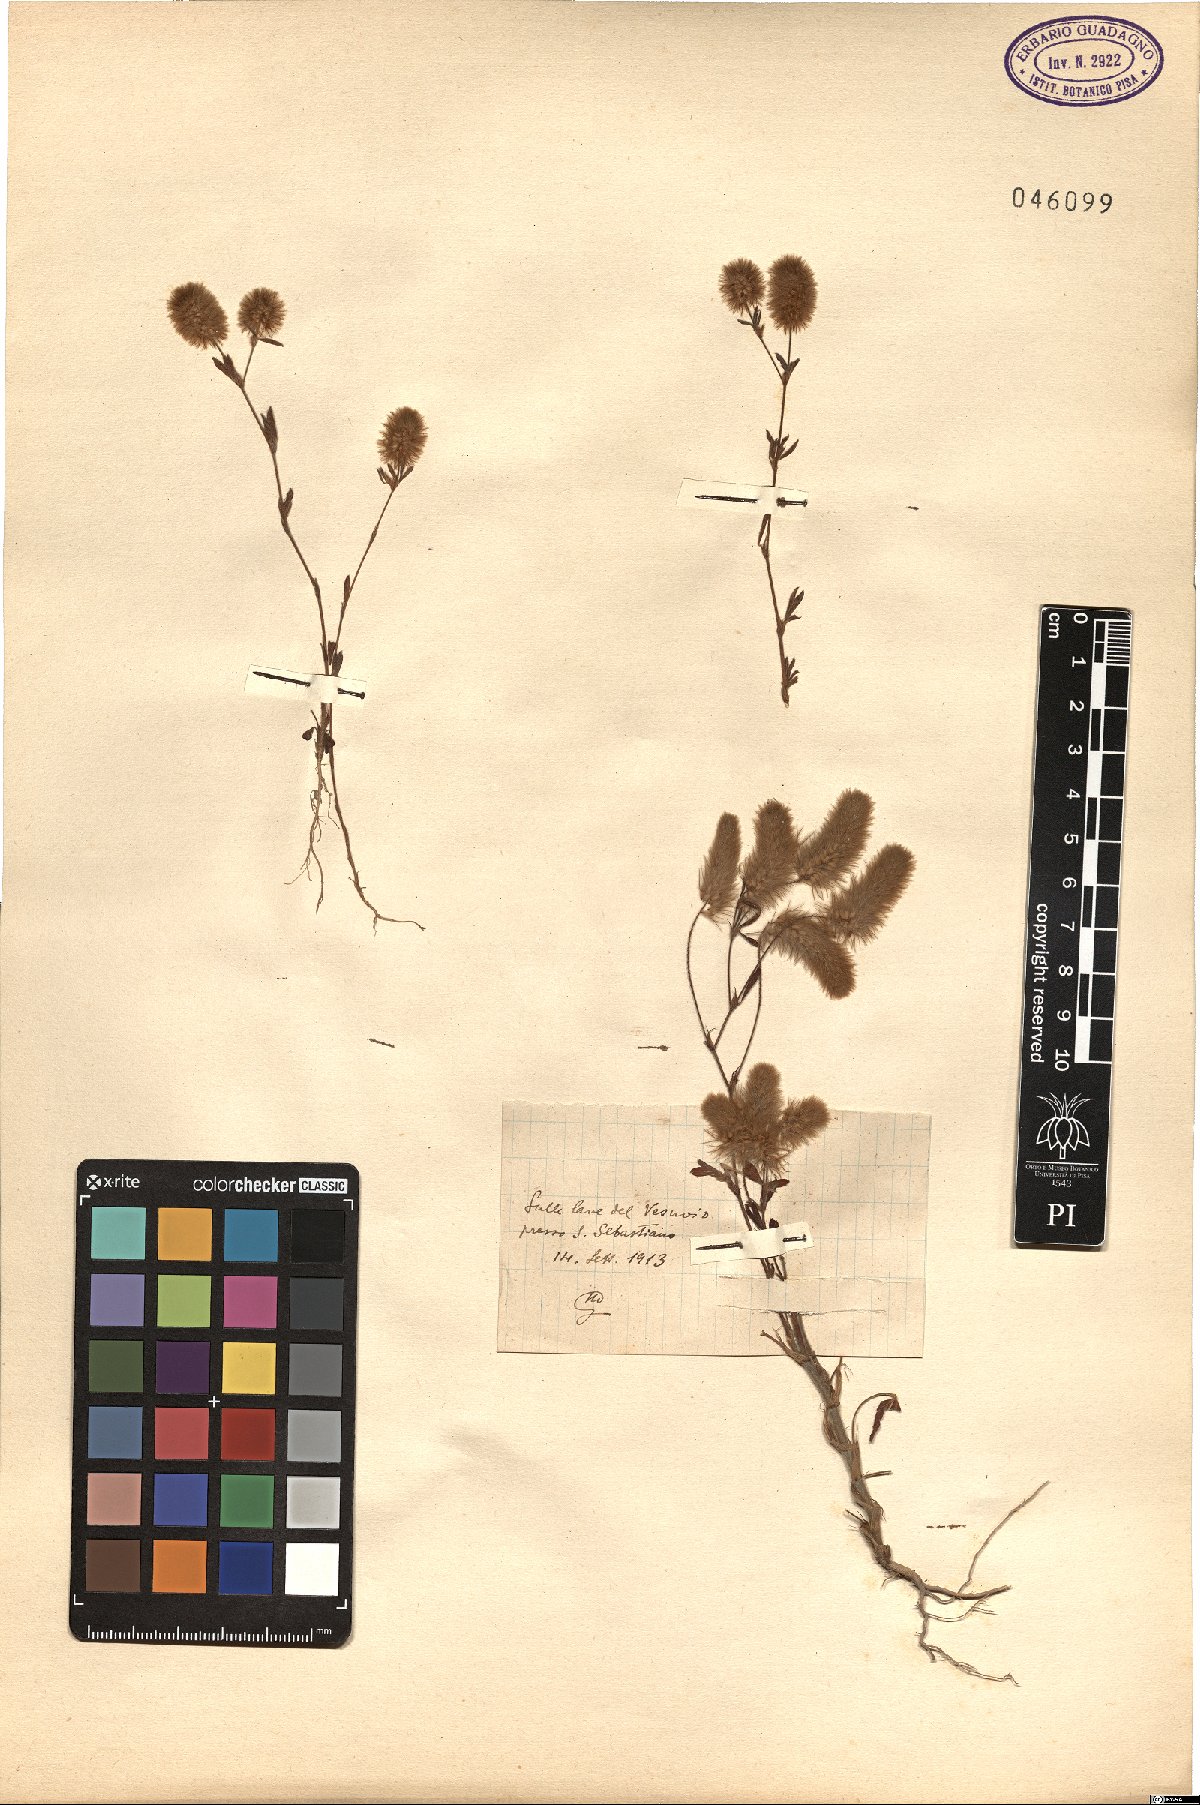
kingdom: Plantae
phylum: Tracheophyta
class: Magnoliopsida
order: Fabales
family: Fabaceae
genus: Trifolium
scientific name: Trifolium
